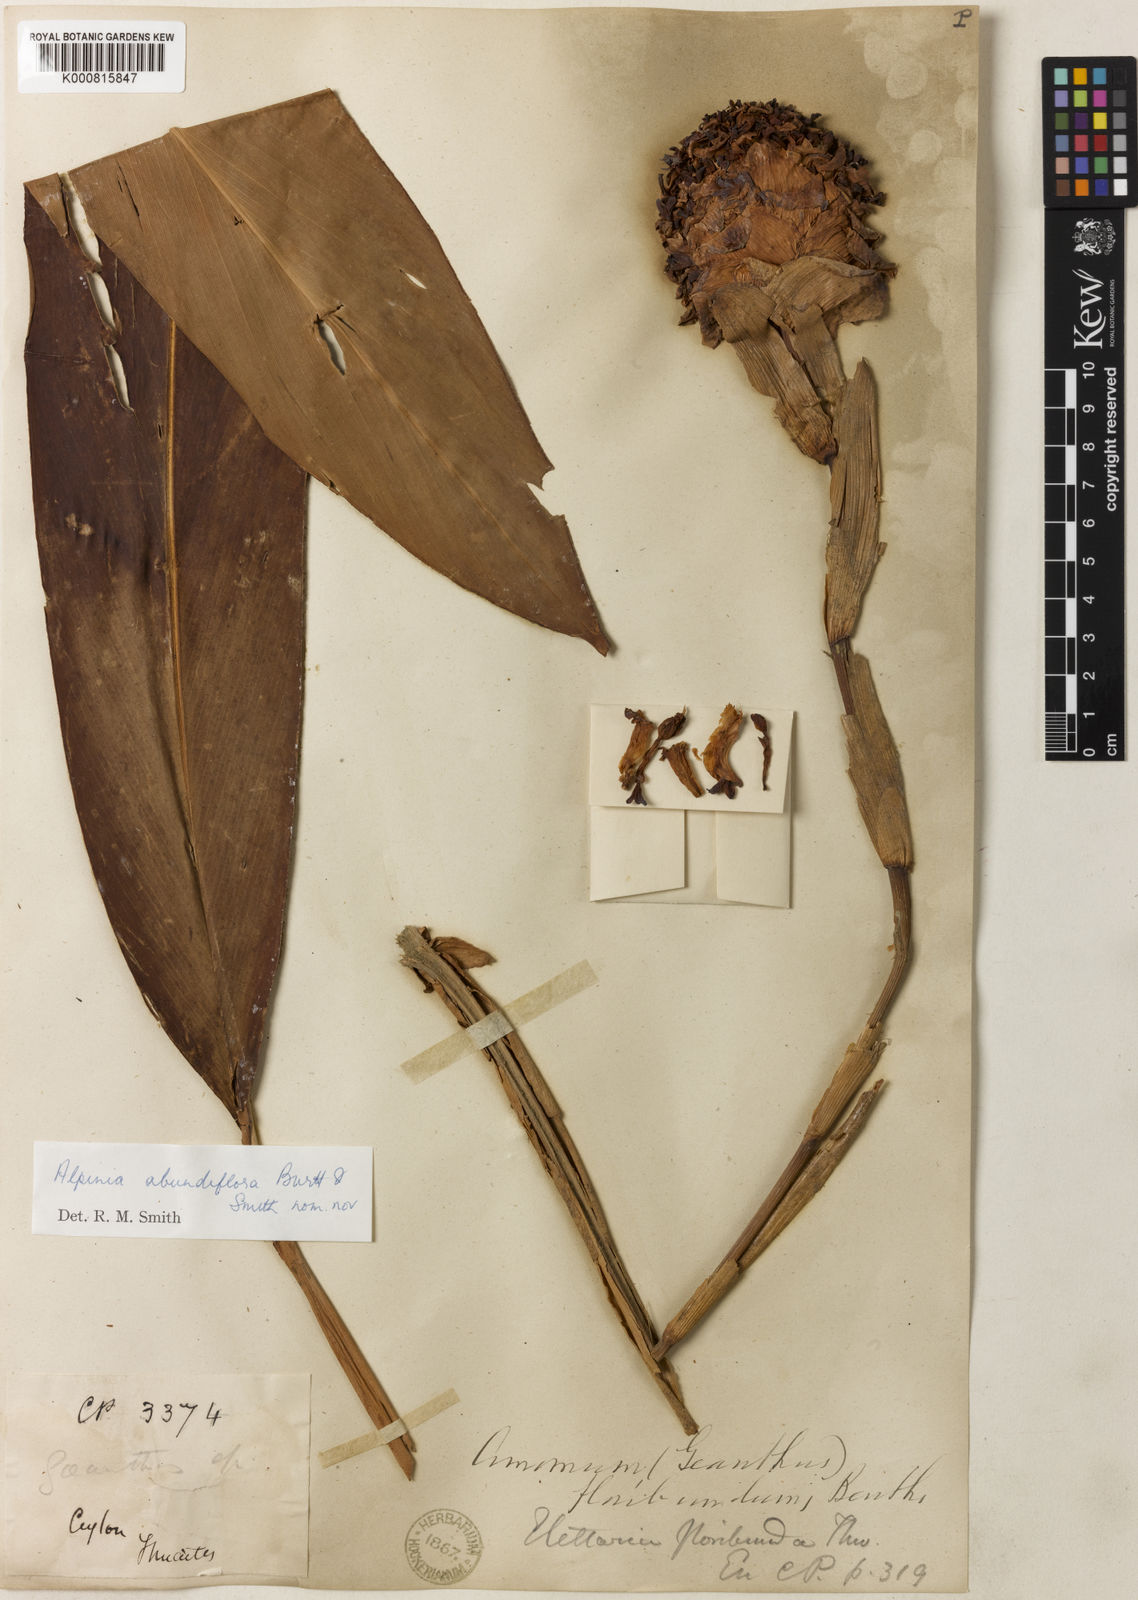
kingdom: Plantae
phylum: Tracheophyta
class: Liliopsida
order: Zingiberales
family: Zingiberaceae
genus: Alpinia
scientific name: Alpinia abundiflora
